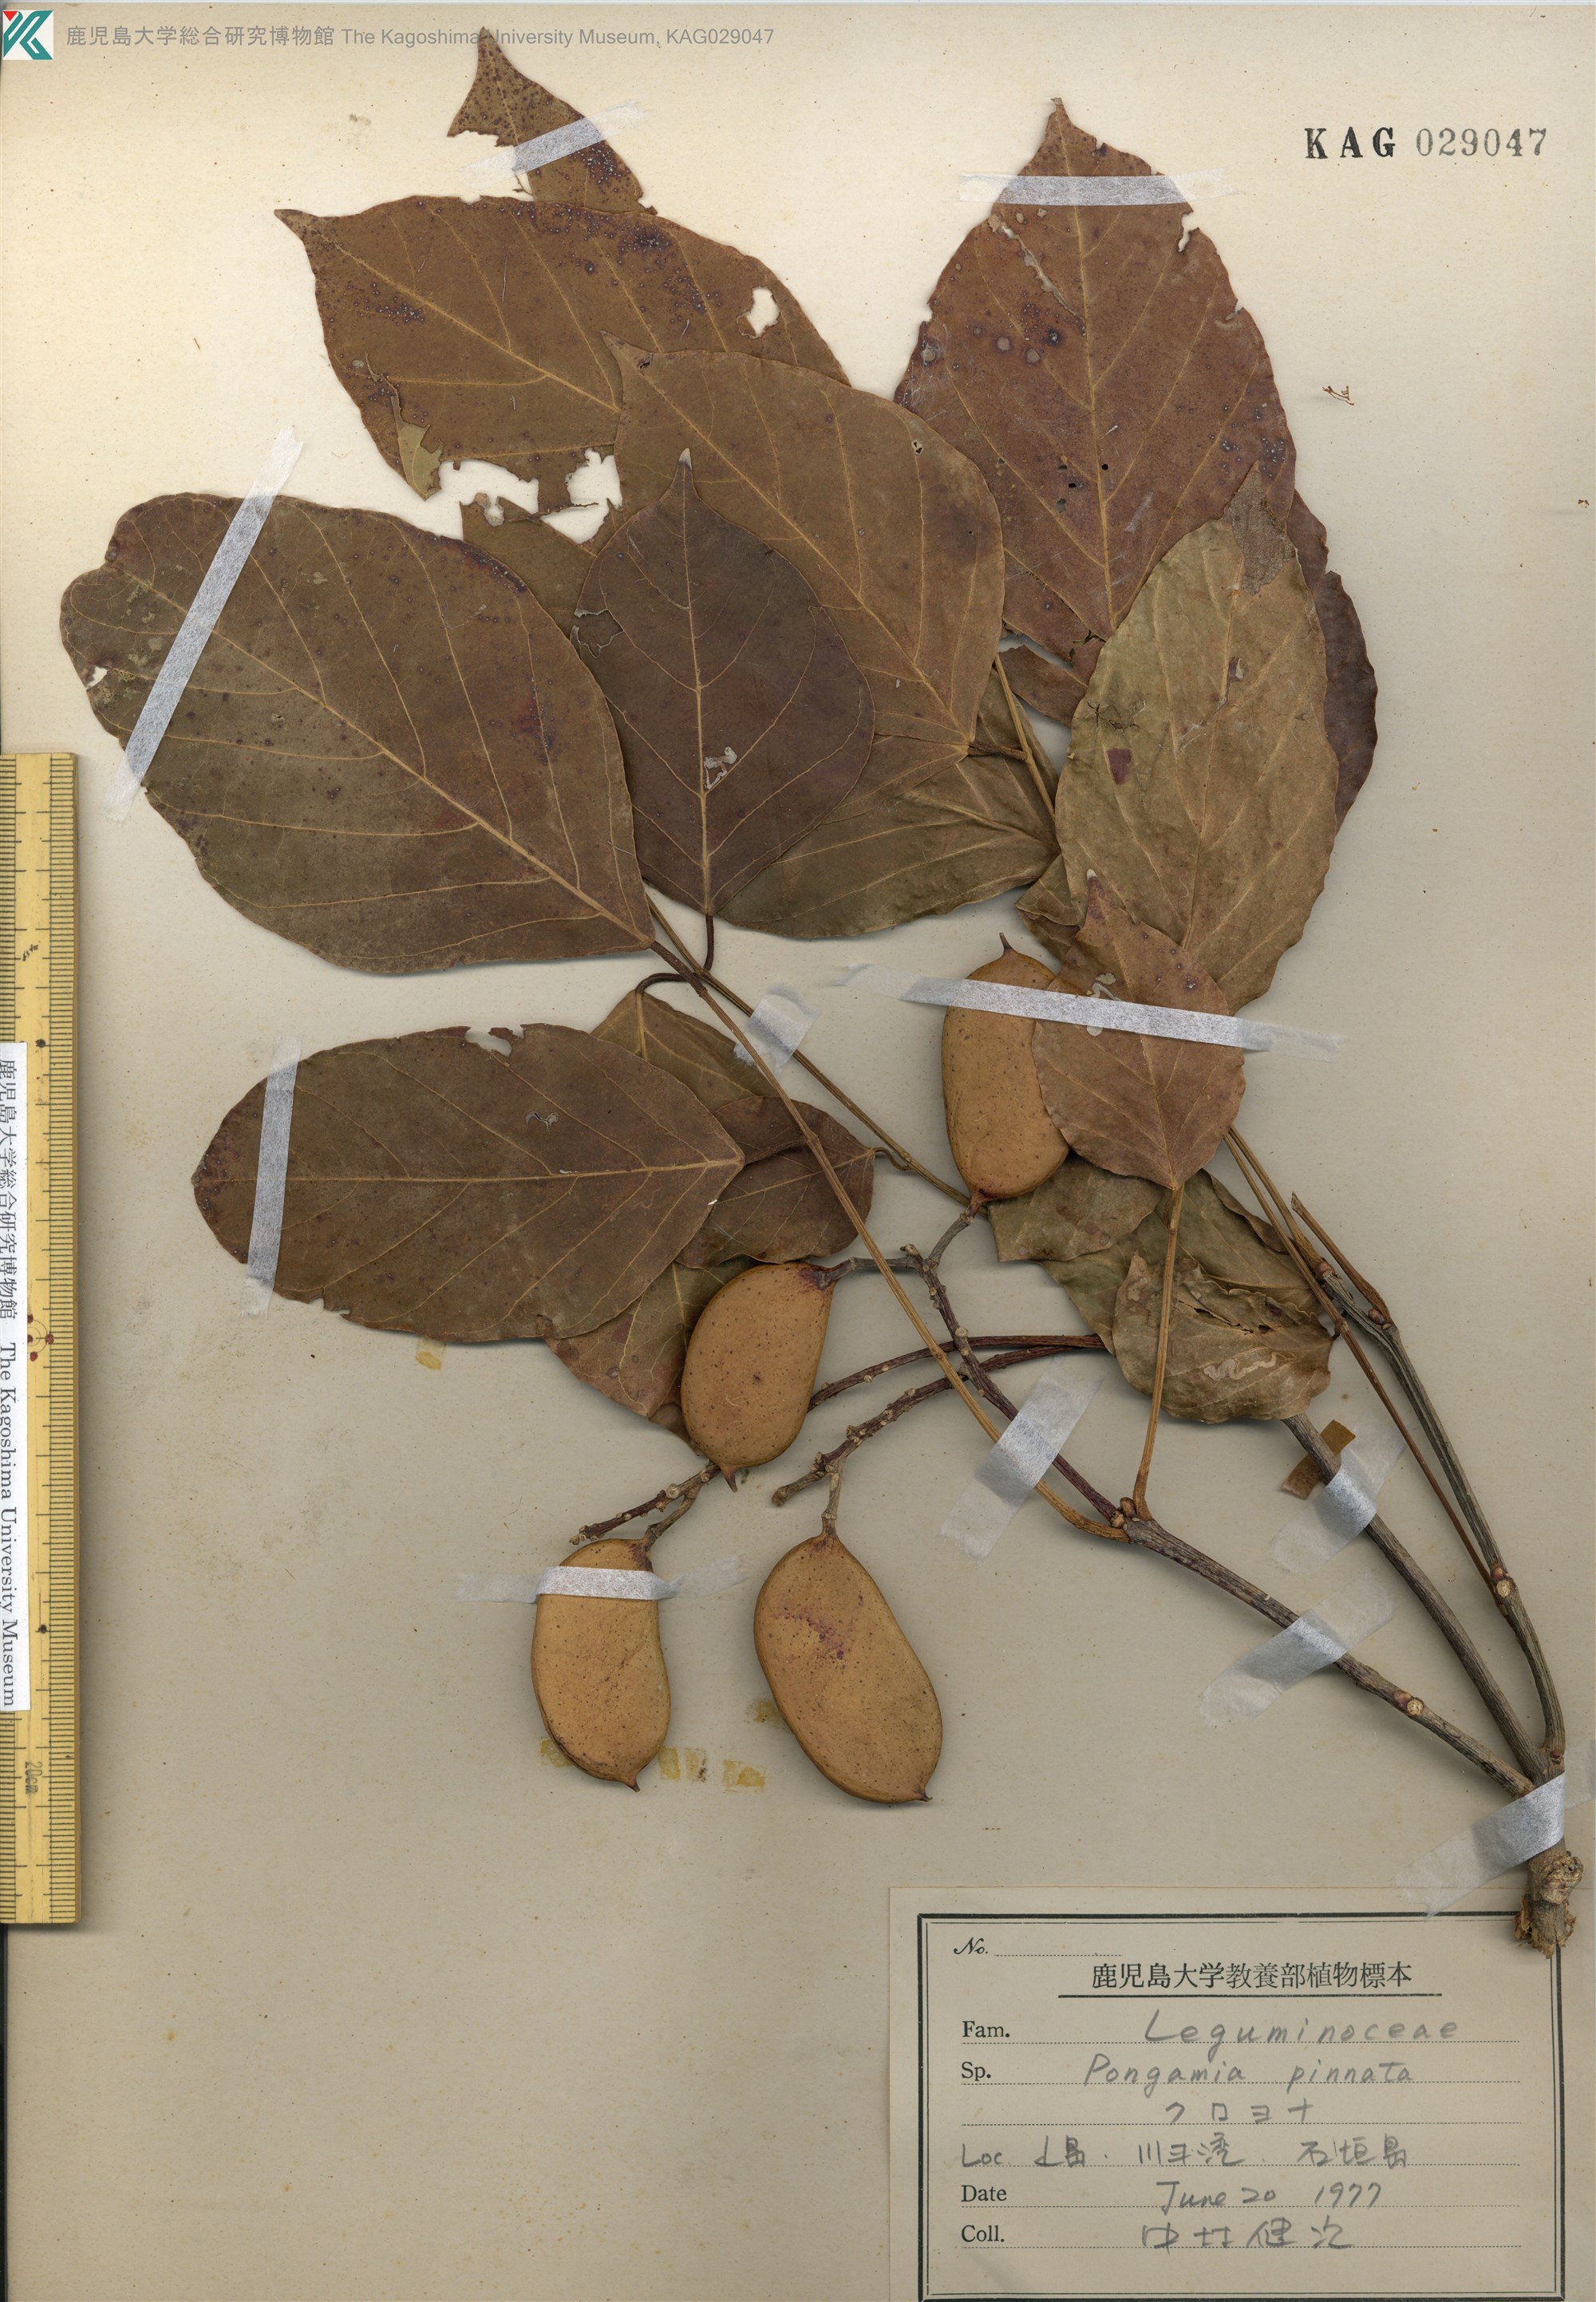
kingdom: Plantae
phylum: Tracheophyta
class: Magnoliopsida
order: Fabales
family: Fabaceae
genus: Pongamia
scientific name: Pongamia pinnata
